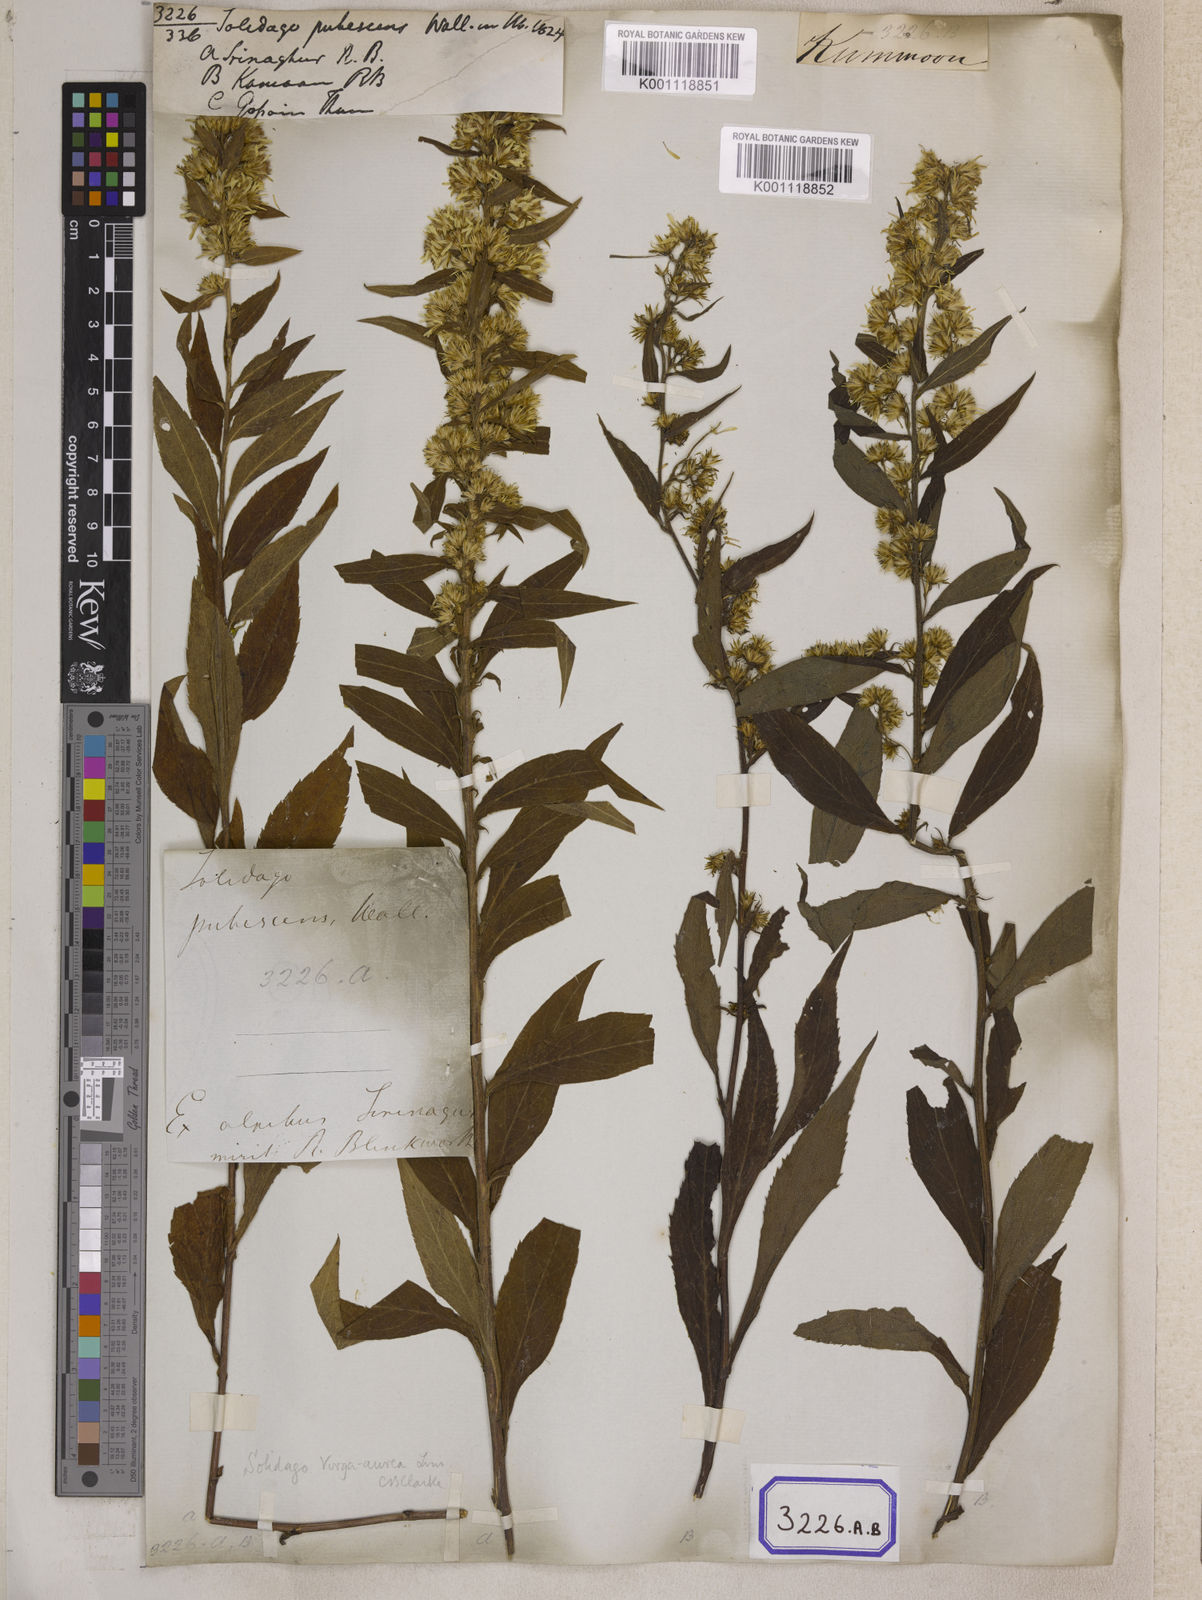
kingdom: Plantae
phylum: Tracheophyta
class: Magnoliopsida
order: Asterales
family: Asteraceae
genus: Solidago
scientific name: Solidago decurrens
